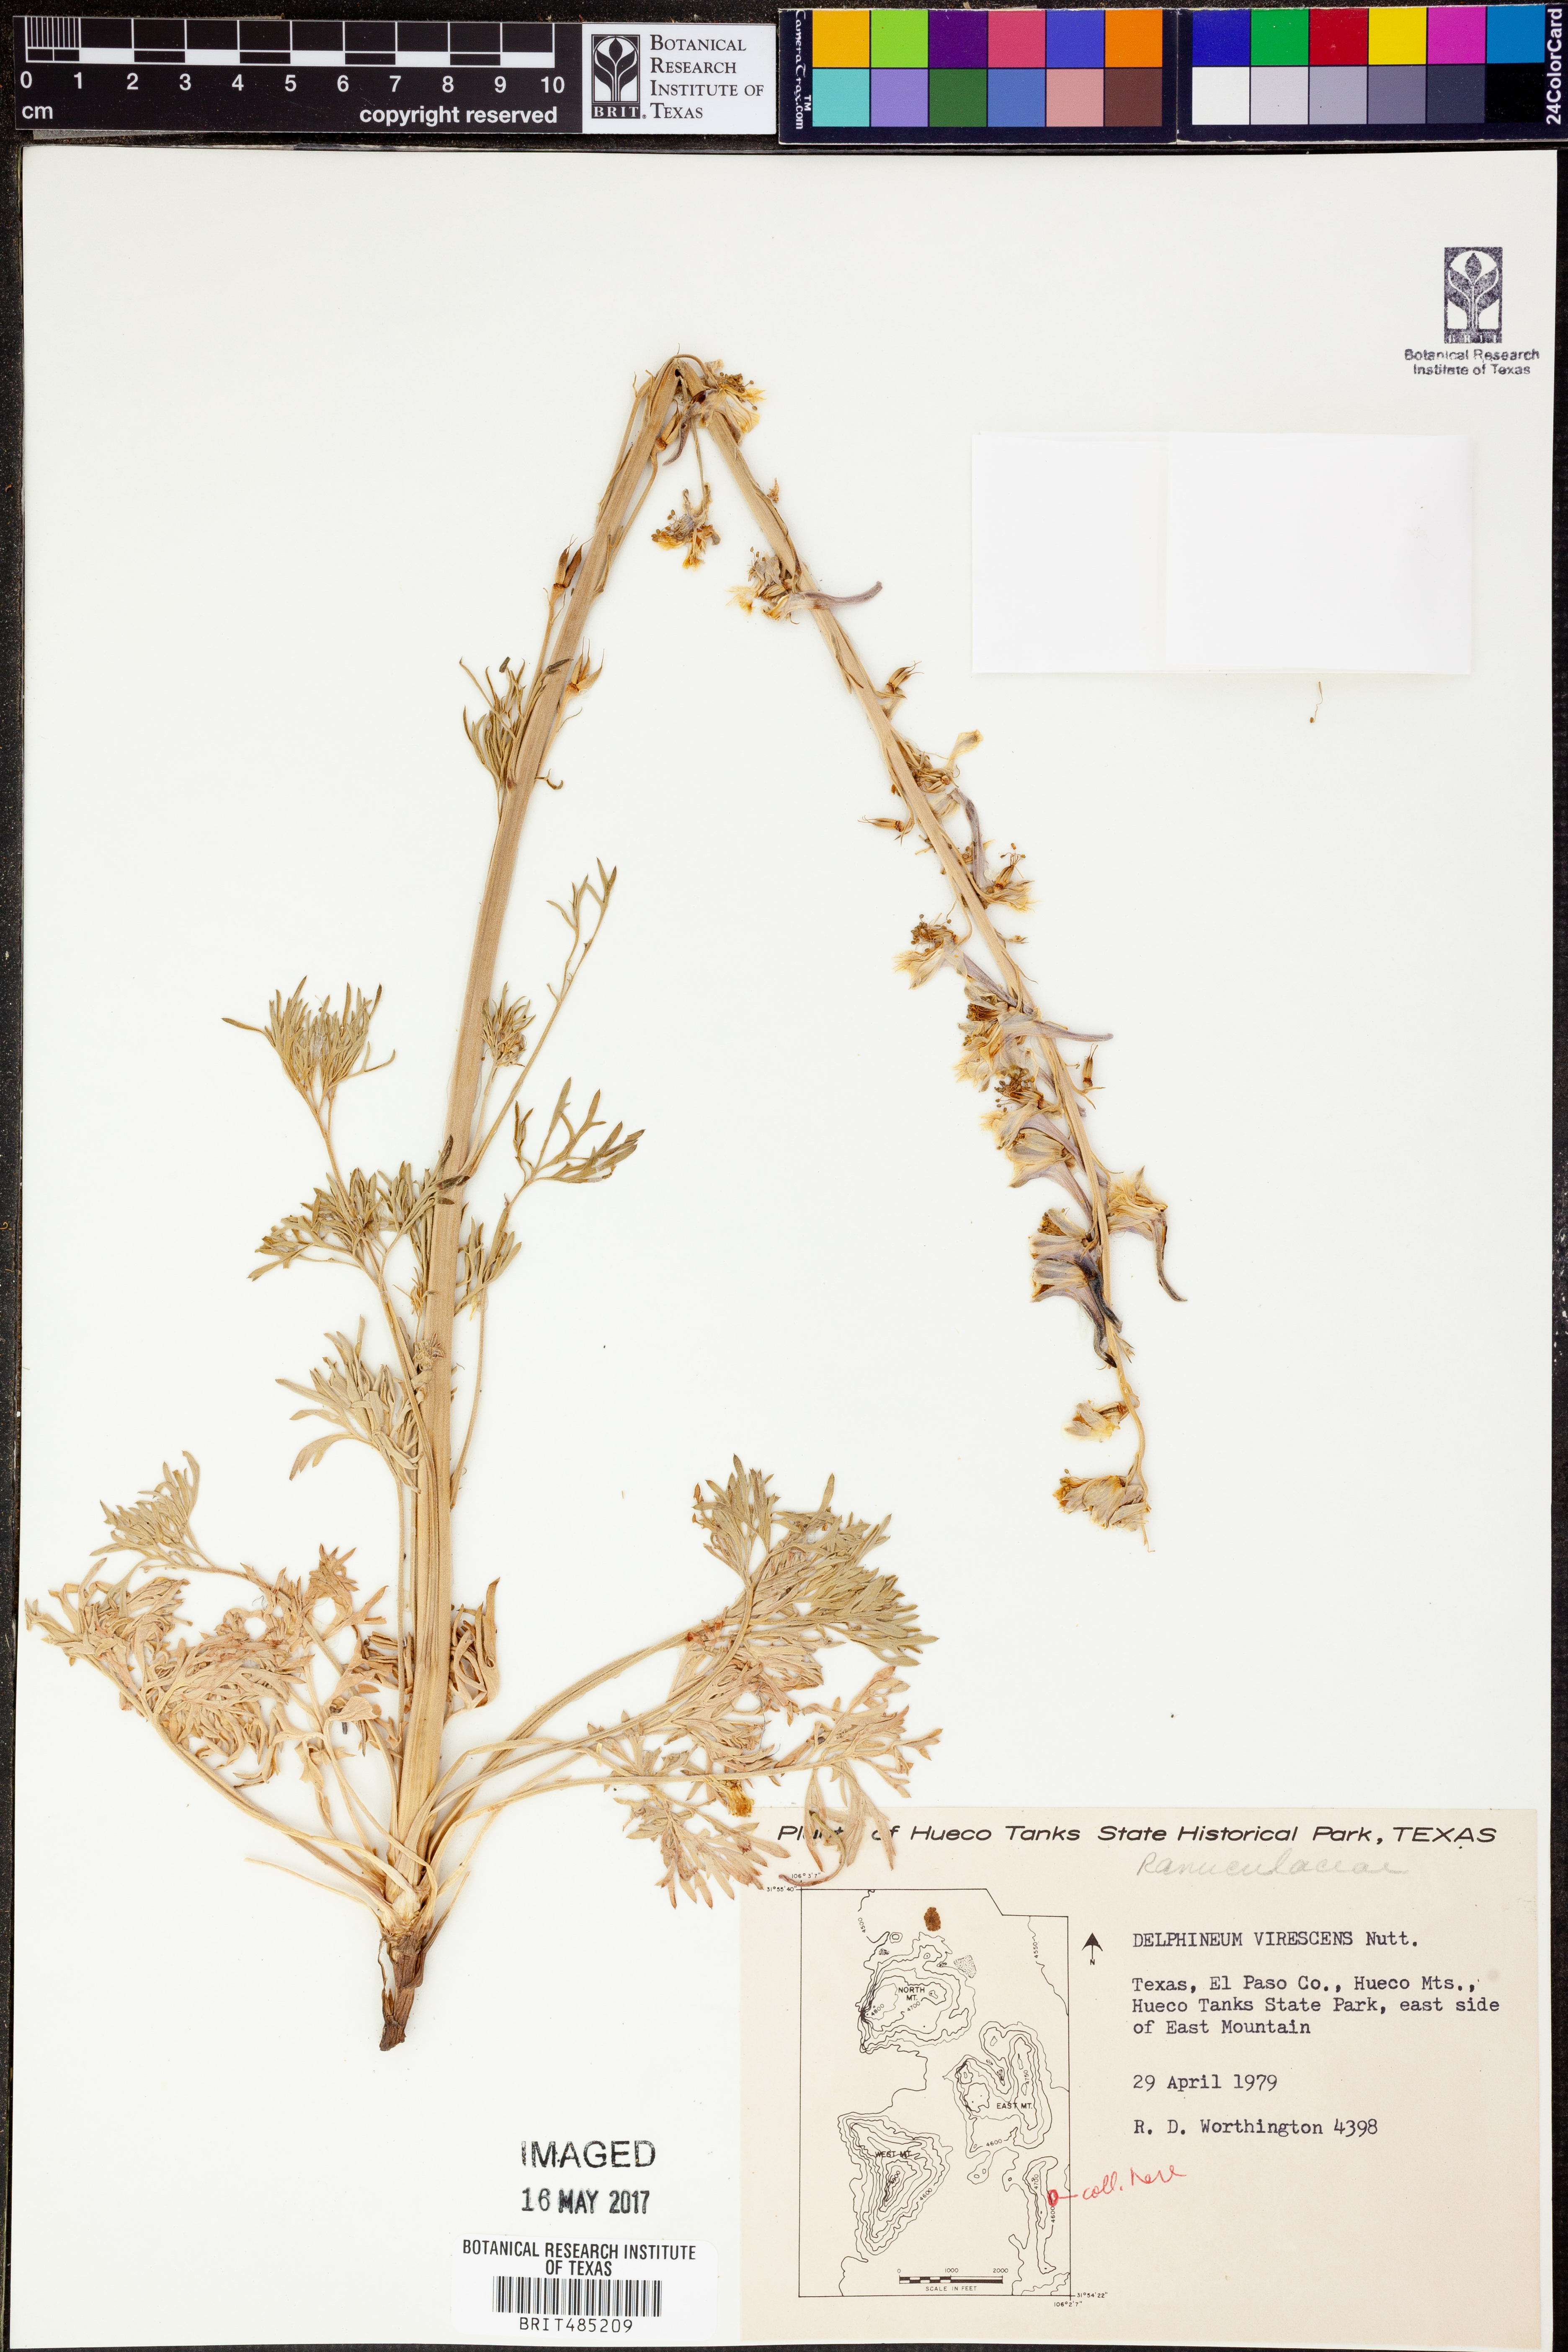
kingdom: Plantae
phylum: Tracheophyta
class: Magnoliopsida
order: Ranunculales
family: Ranunculaceae
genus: Delphinium
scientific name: Delphinium carolinianum
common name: Carolina larkspur
